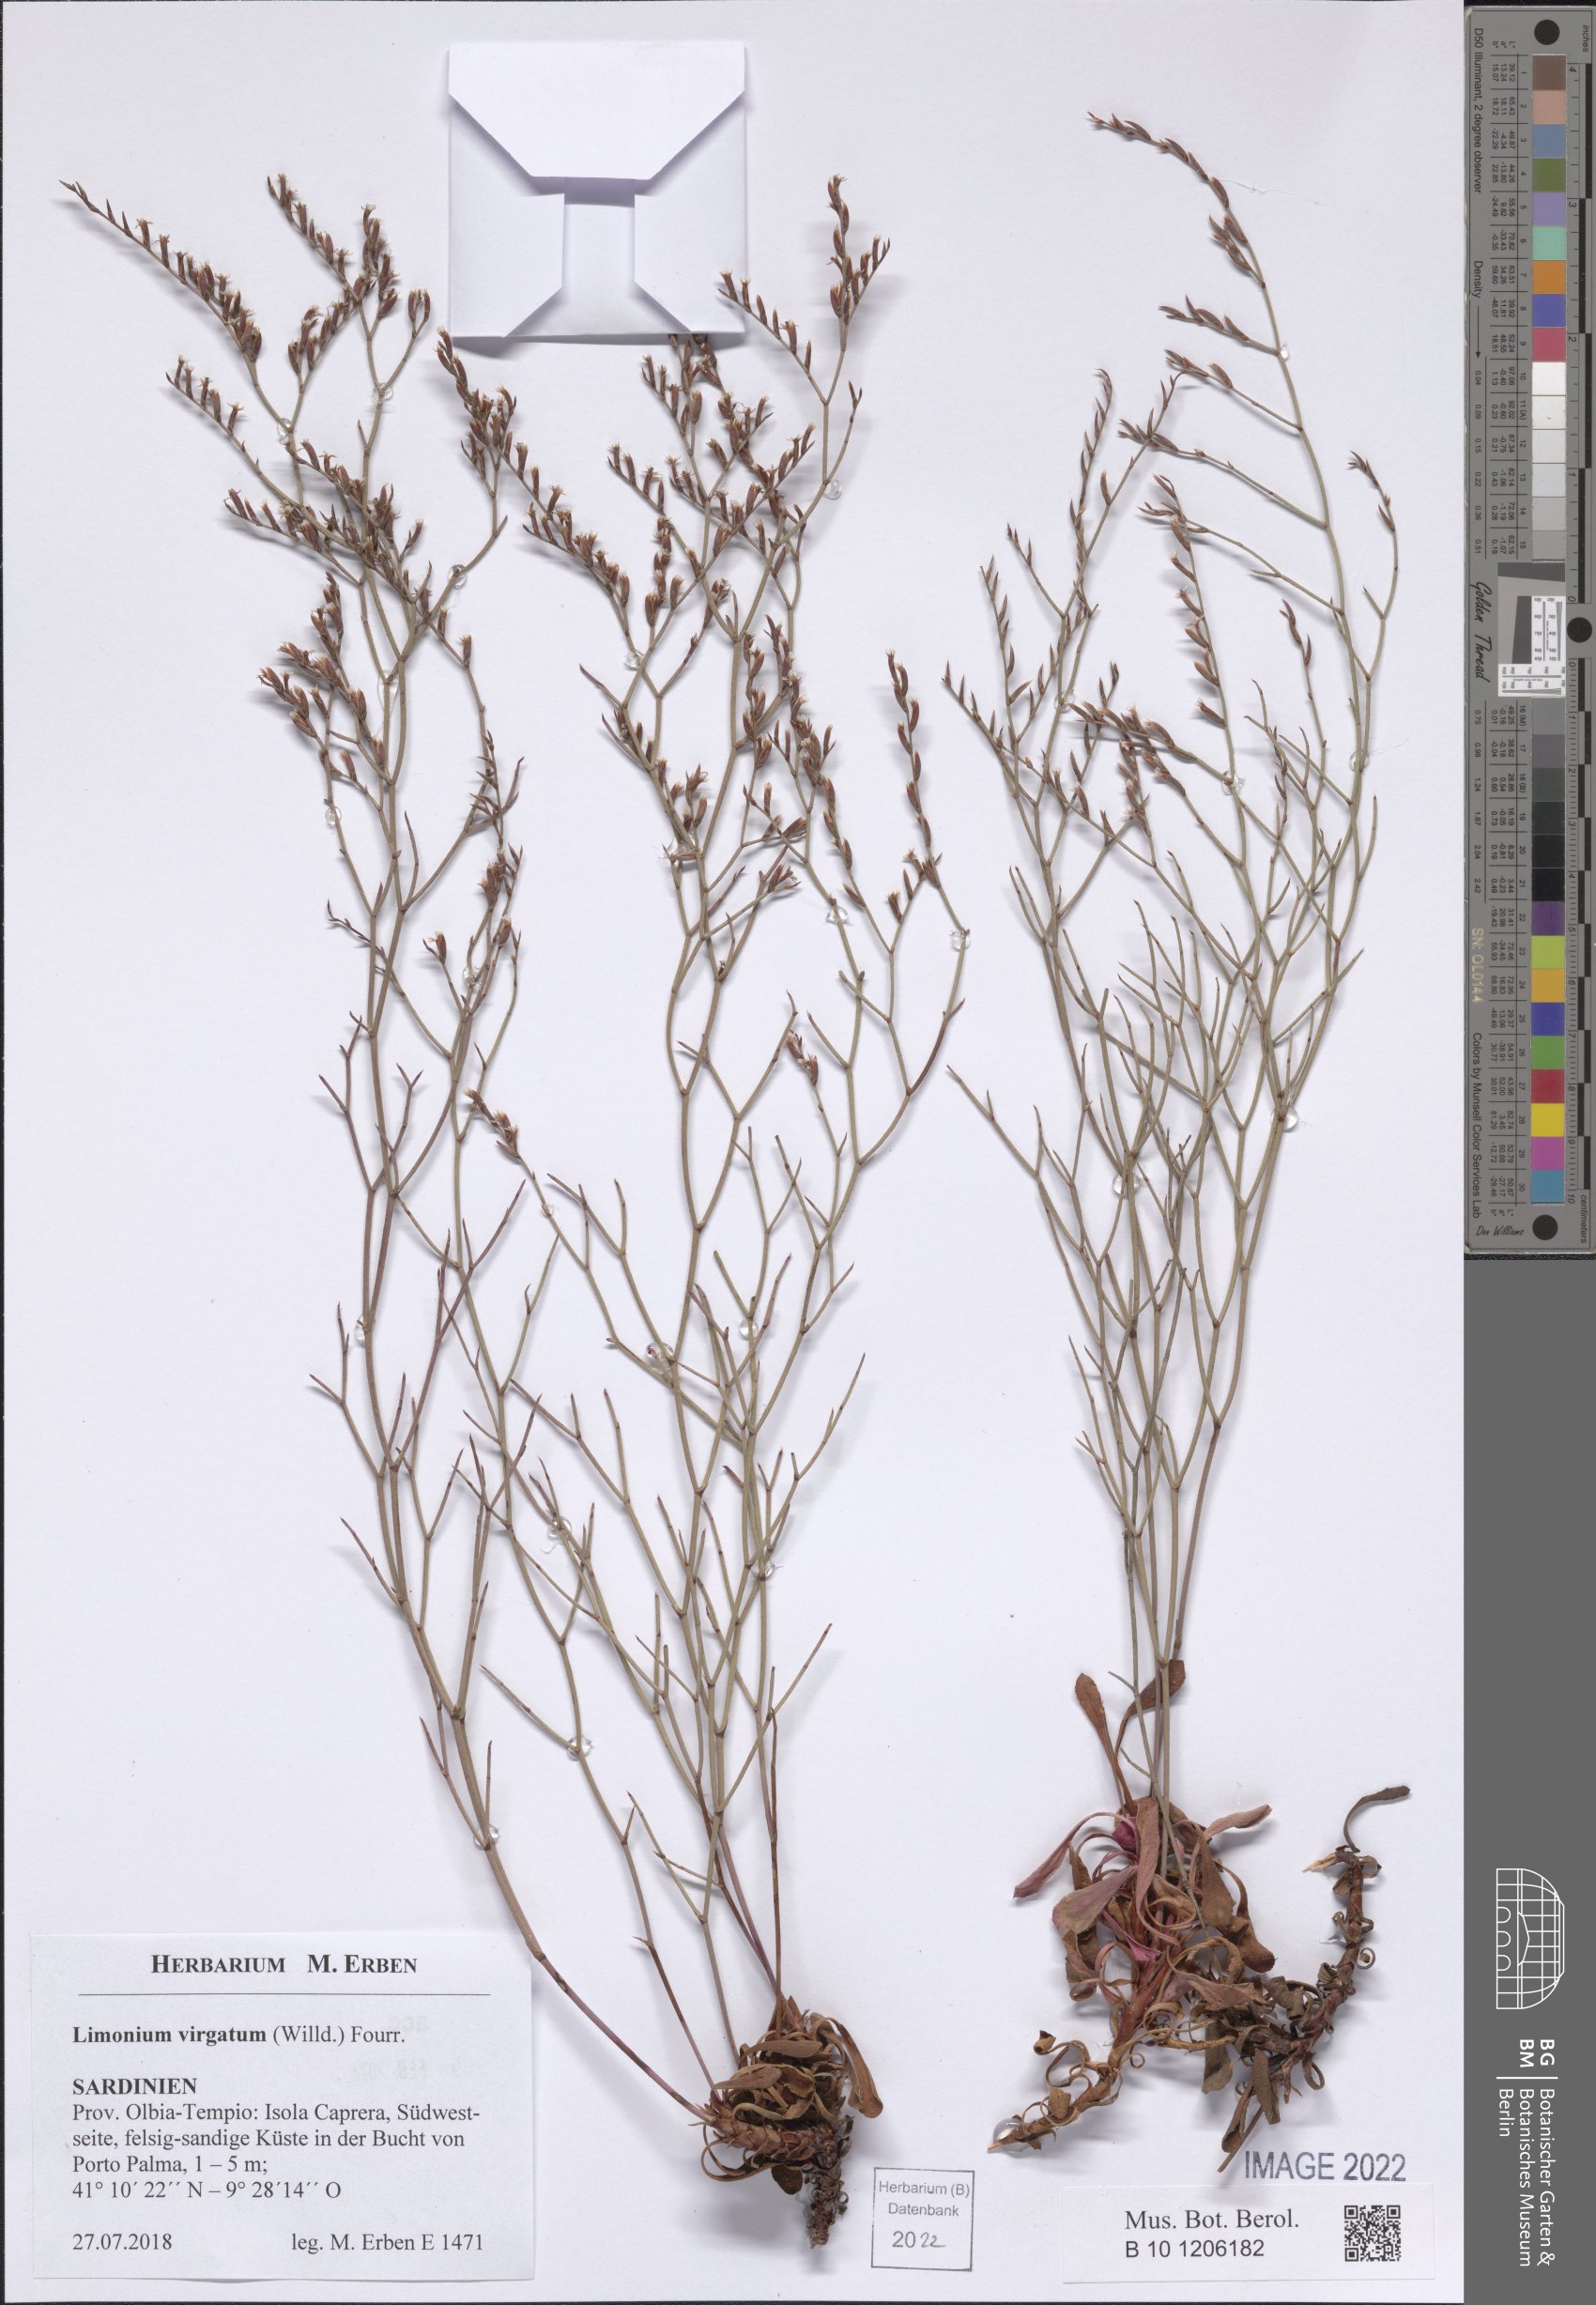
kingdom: Plantae
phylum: Tracheophyta
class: Magnoliopsida
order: Caryophyllales
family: Plumbaginaceae
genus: Limonium
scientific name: Limonium virgatum
